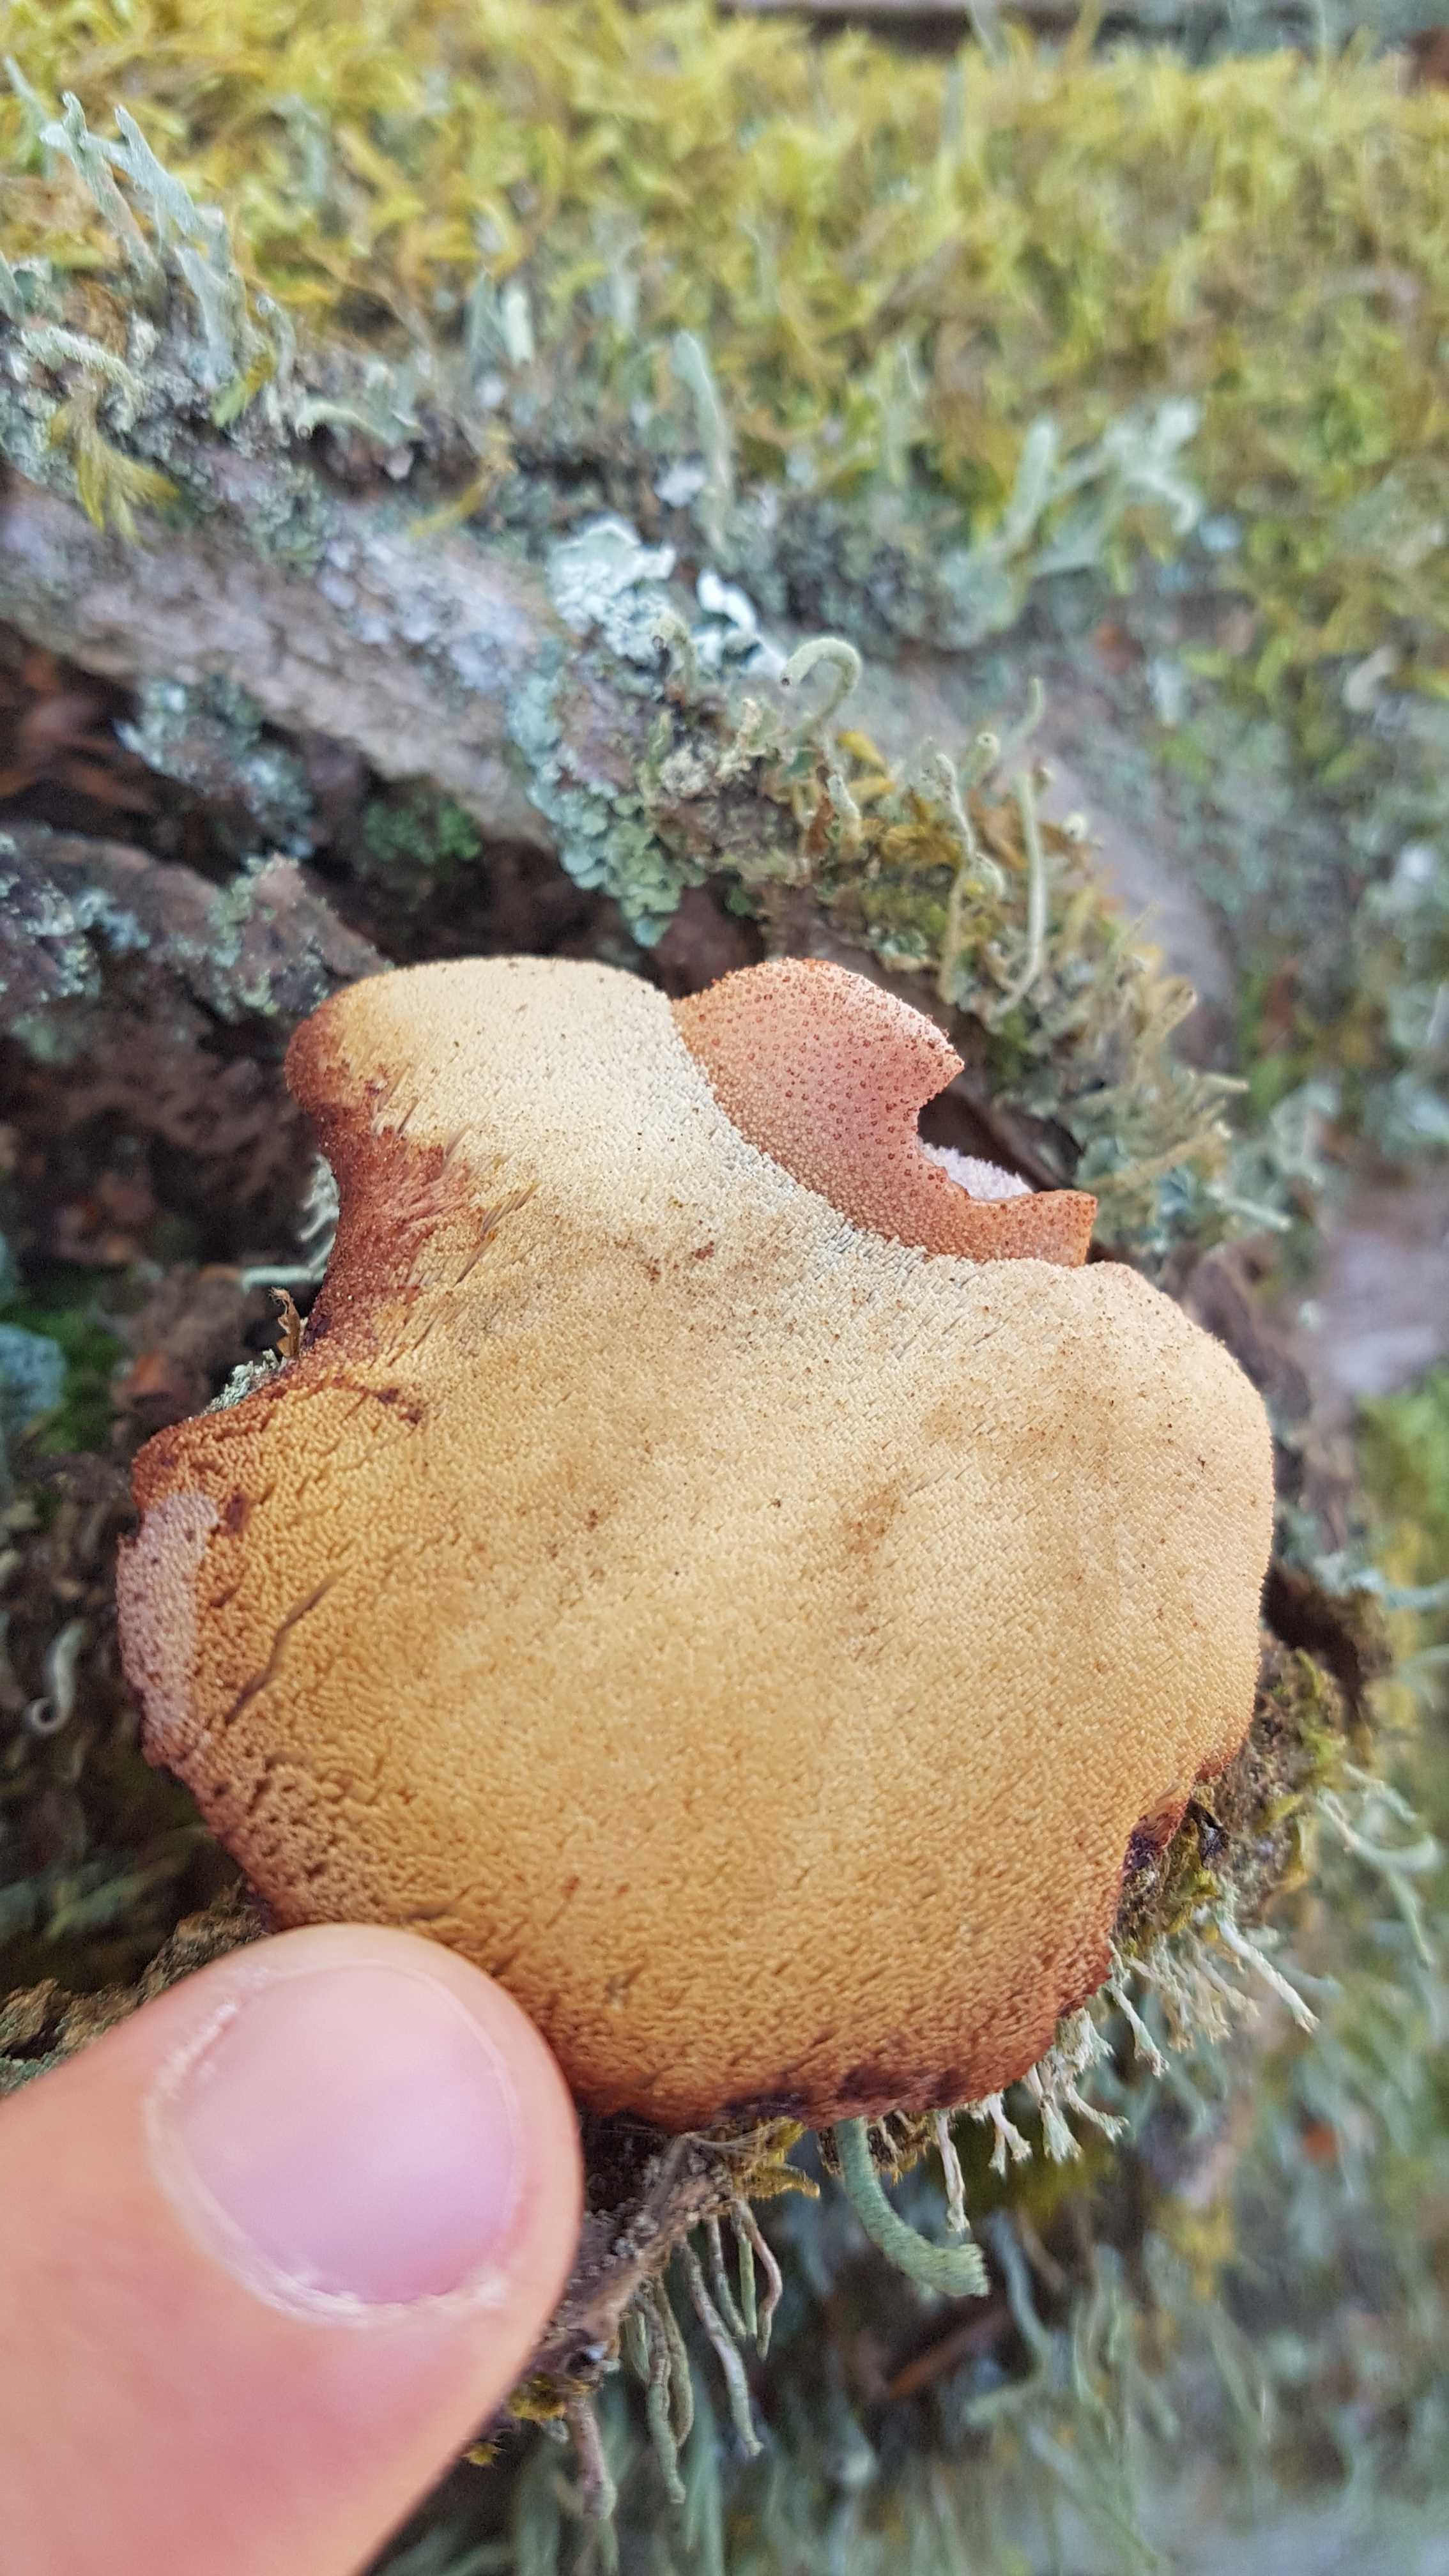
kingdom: Fungi
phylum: Basidiomycota
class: Agaricomycetes
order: Agaricales
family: Fistulinaceae
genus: Fistulina
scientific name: Fistulina hepatica
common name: oksetunge
